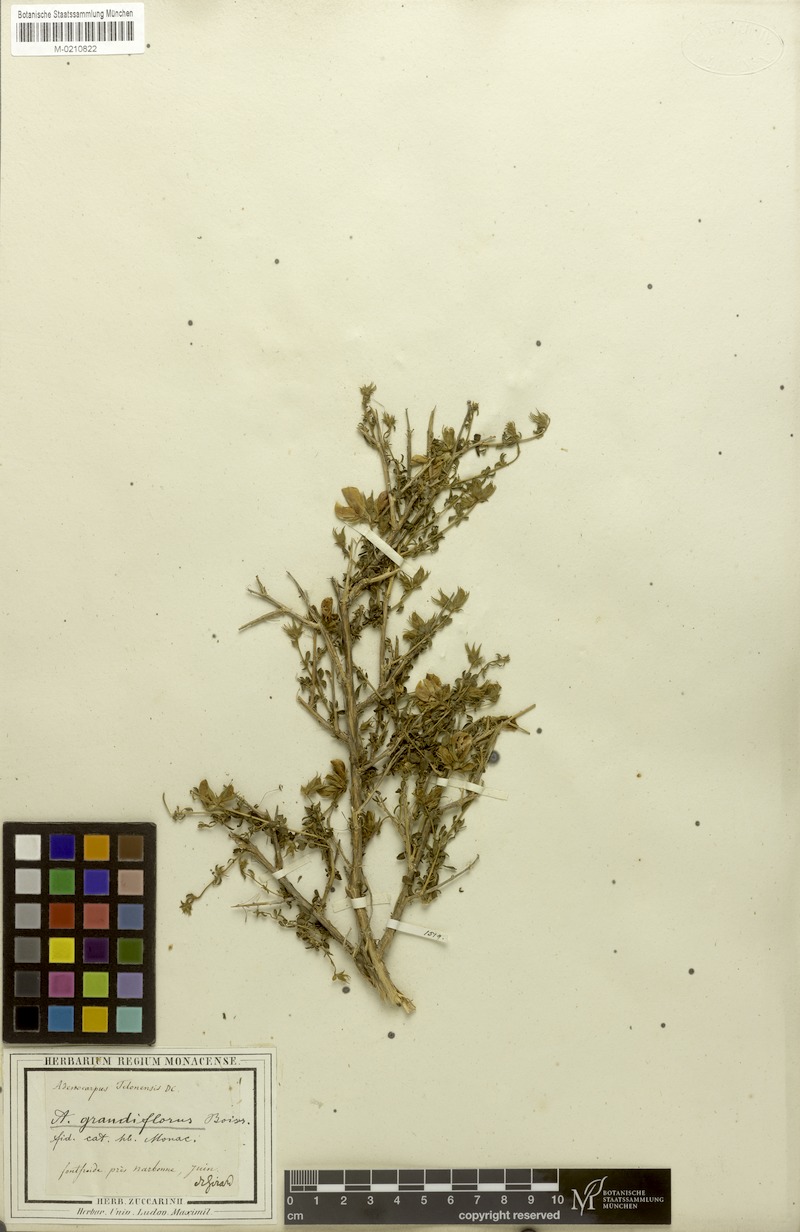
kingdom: Plantae
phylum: Tracheophyta
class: Magnoliopsida
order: Fabales
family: Fabaceae
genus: Adenocarpus
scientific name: Adenocarpus telonensis
